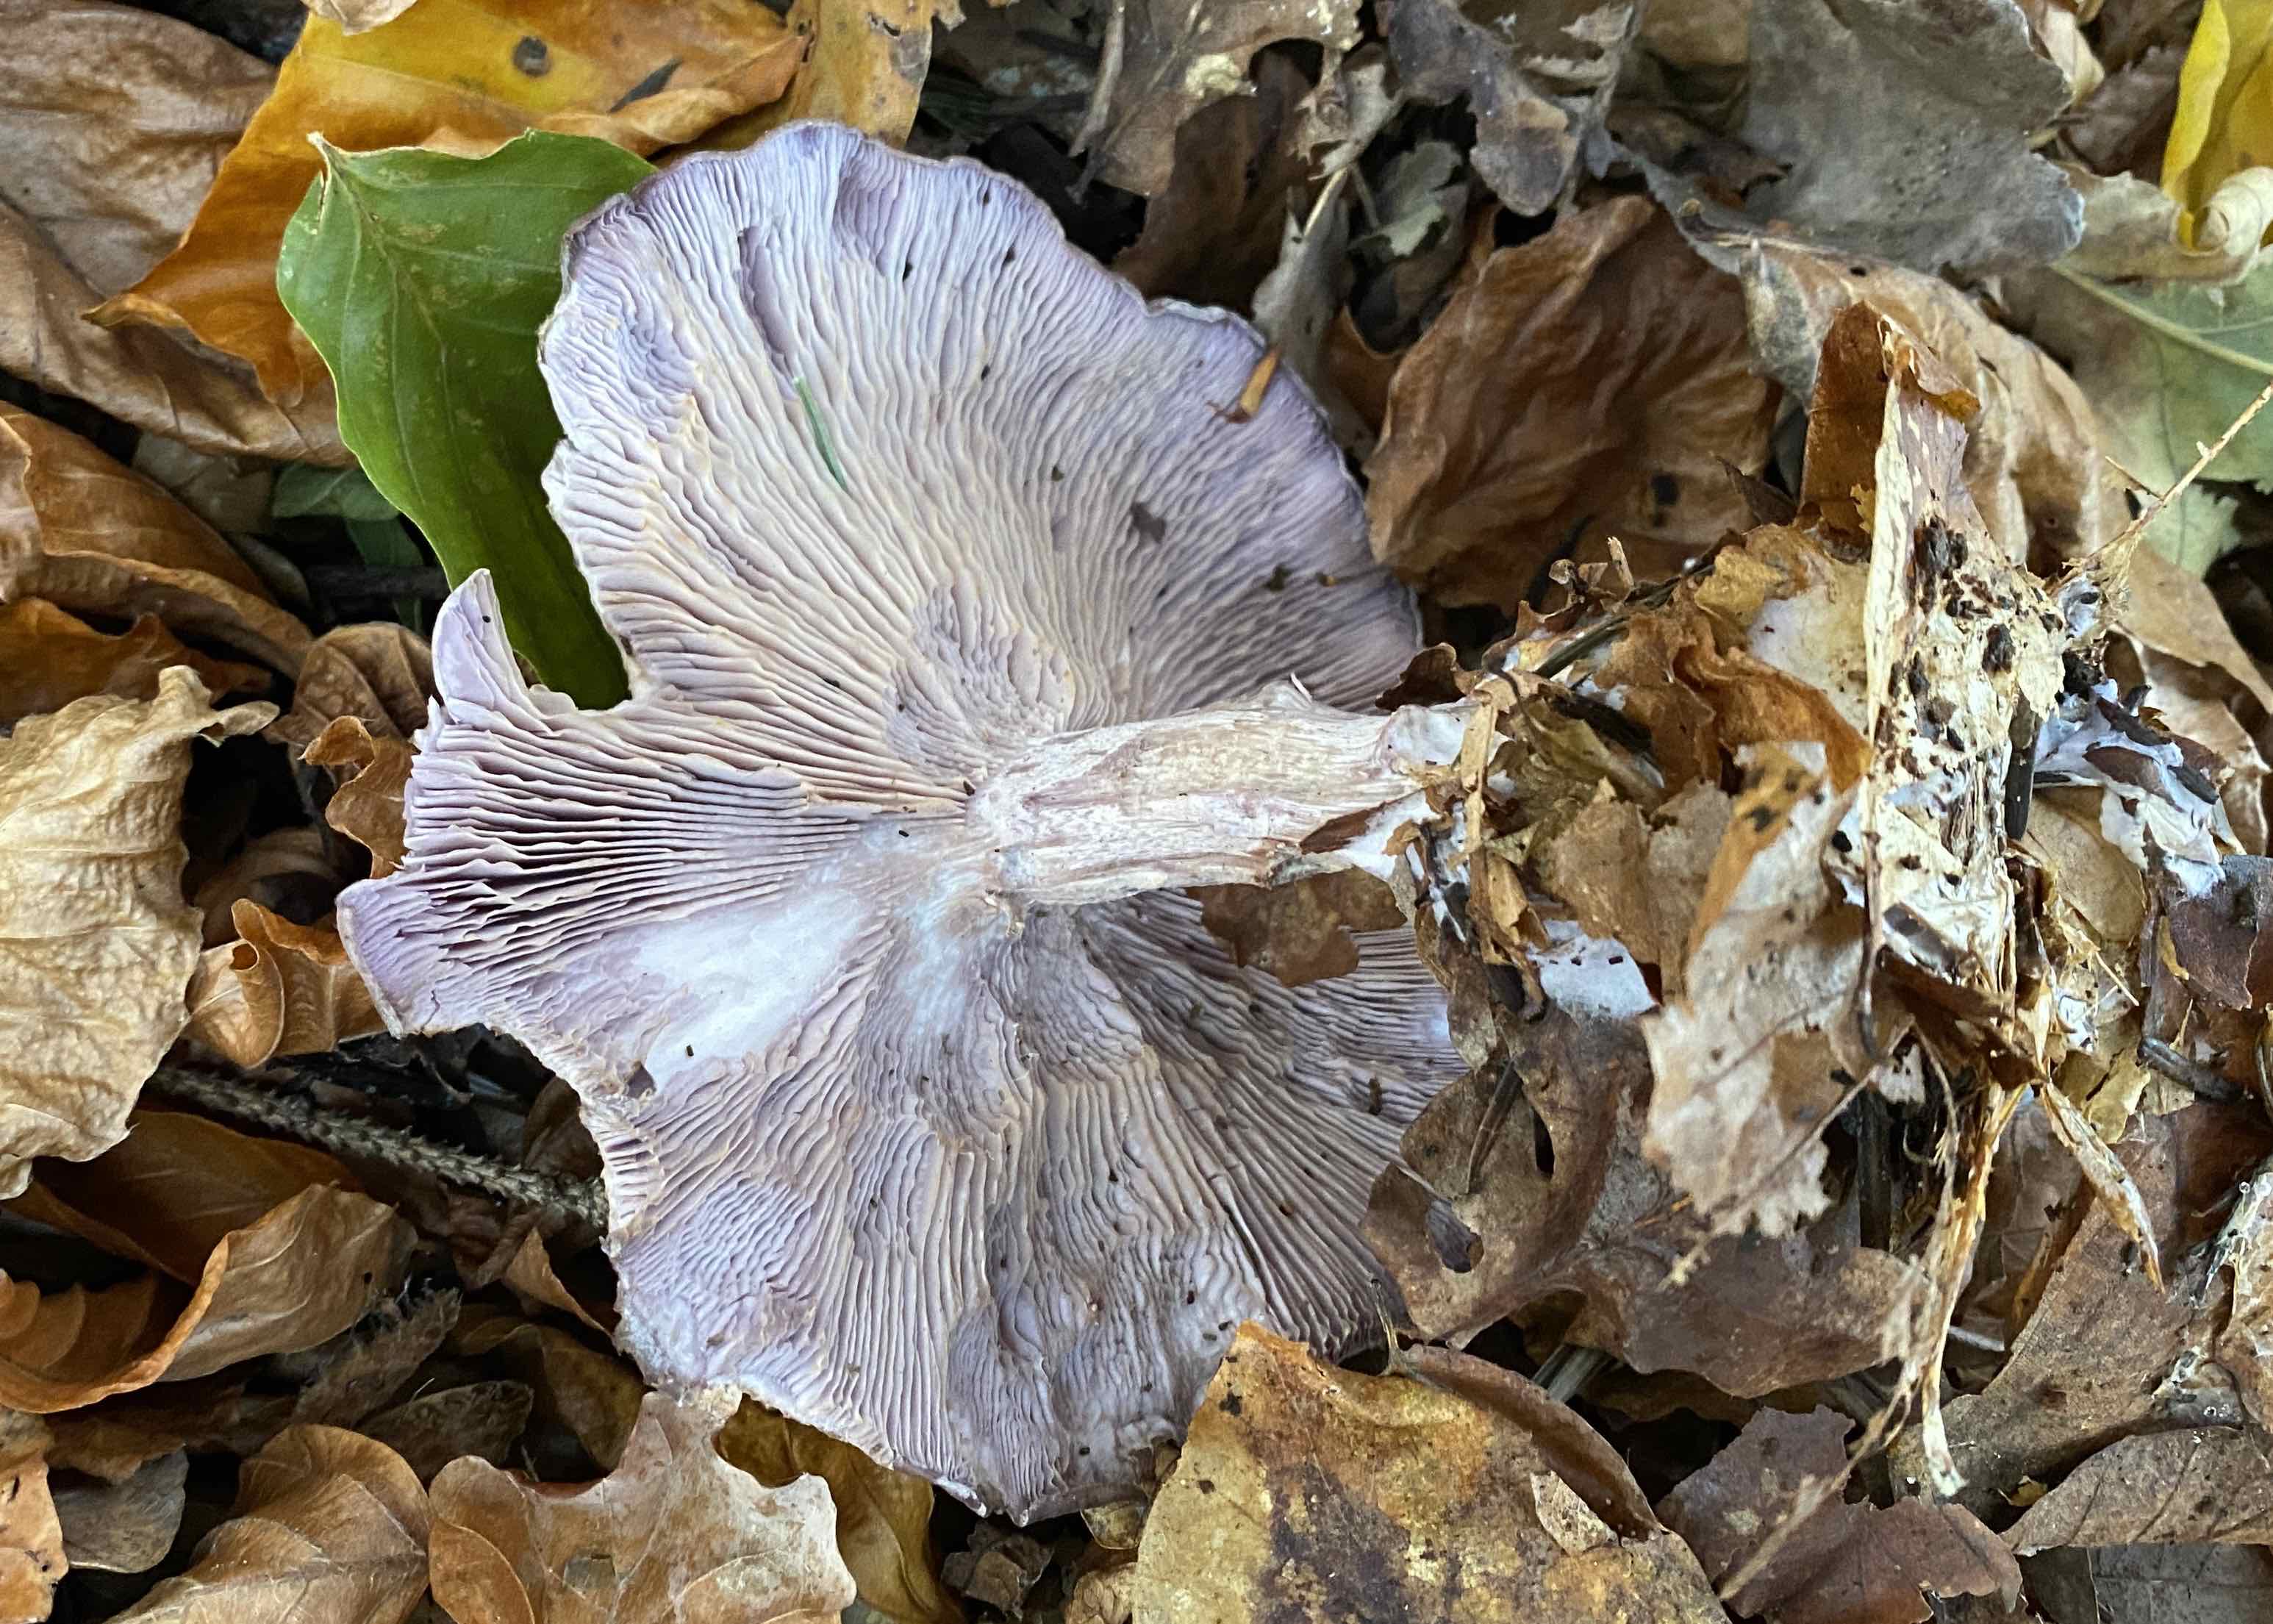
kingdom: Fungi
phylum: Basidiomycota
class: Agaricomycetes
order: Agaricales
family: Tricholomataceae
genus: Lepista
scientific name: Lepista nuda
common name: violet hekseringshat
